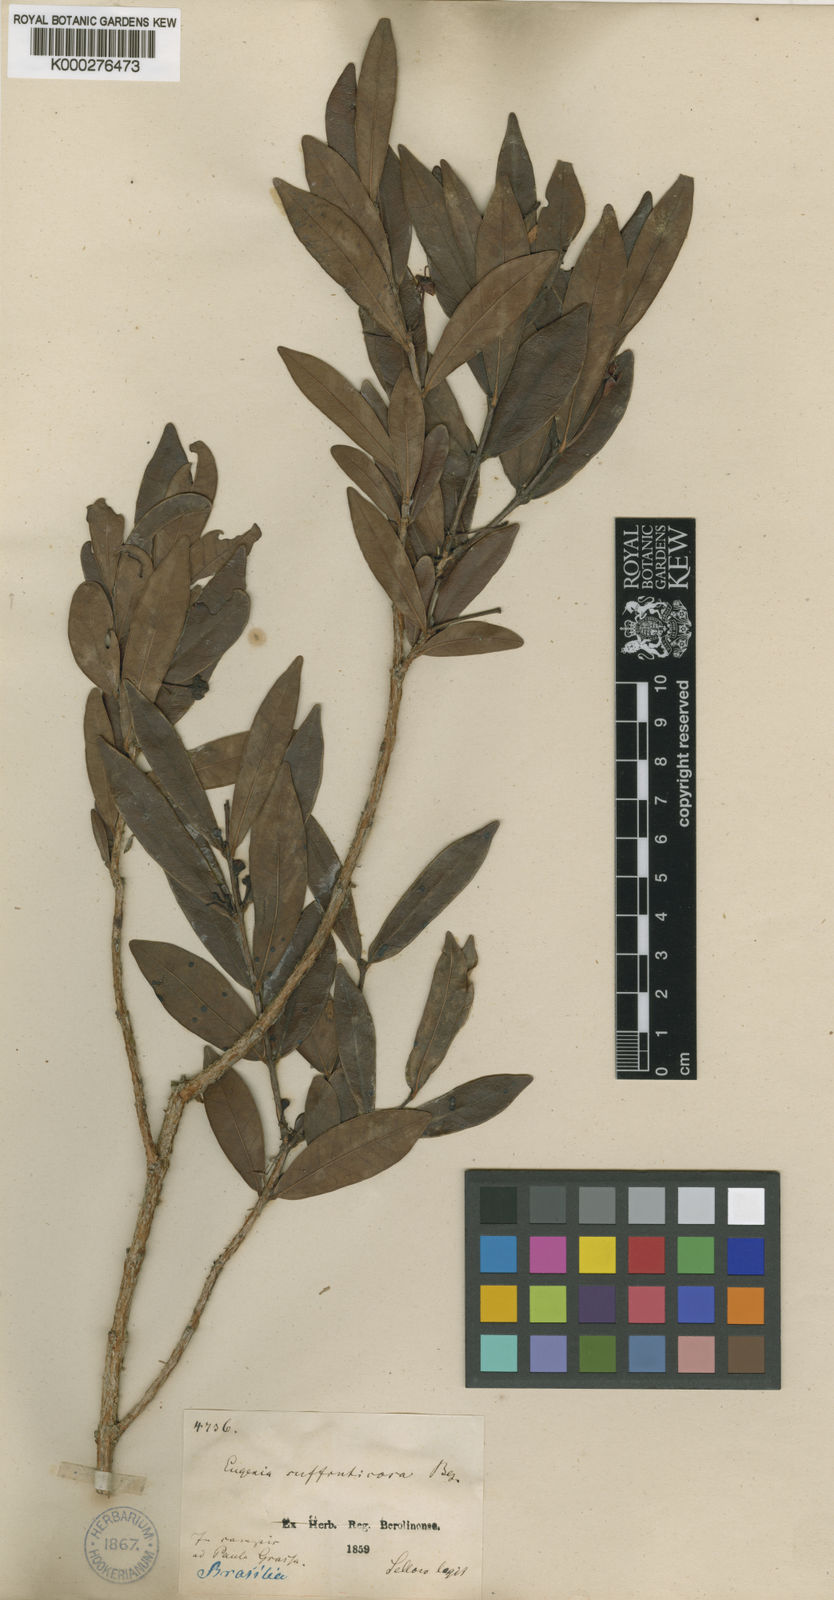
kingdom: Plantae
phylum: Tracheophyta
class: Magnoliopsida
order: Myrtales
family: Myrtaceae
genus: Eugenia
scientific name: Eugenia punicifolia
